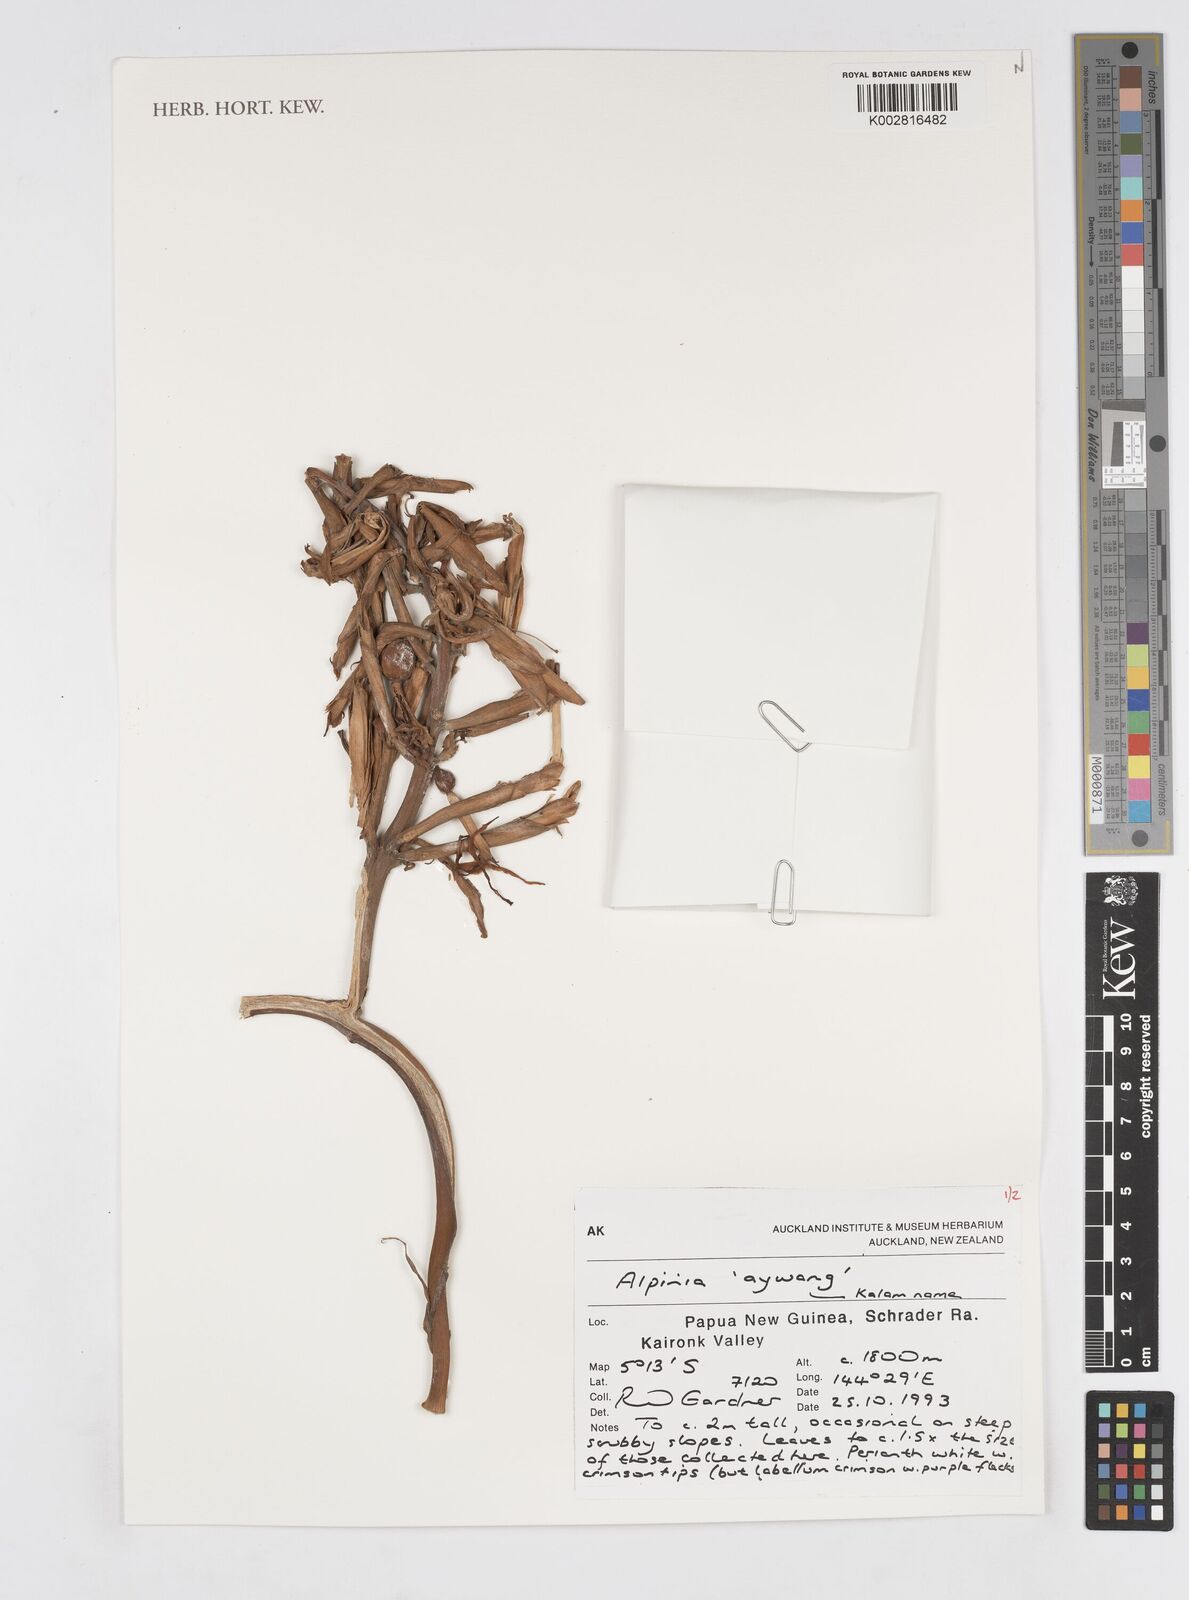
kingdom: Plantae
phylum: Tracheophyta
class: Liliopsida
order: Zingiberales
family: Zingiberaceae
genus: Alpinia
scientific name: Alpinia
